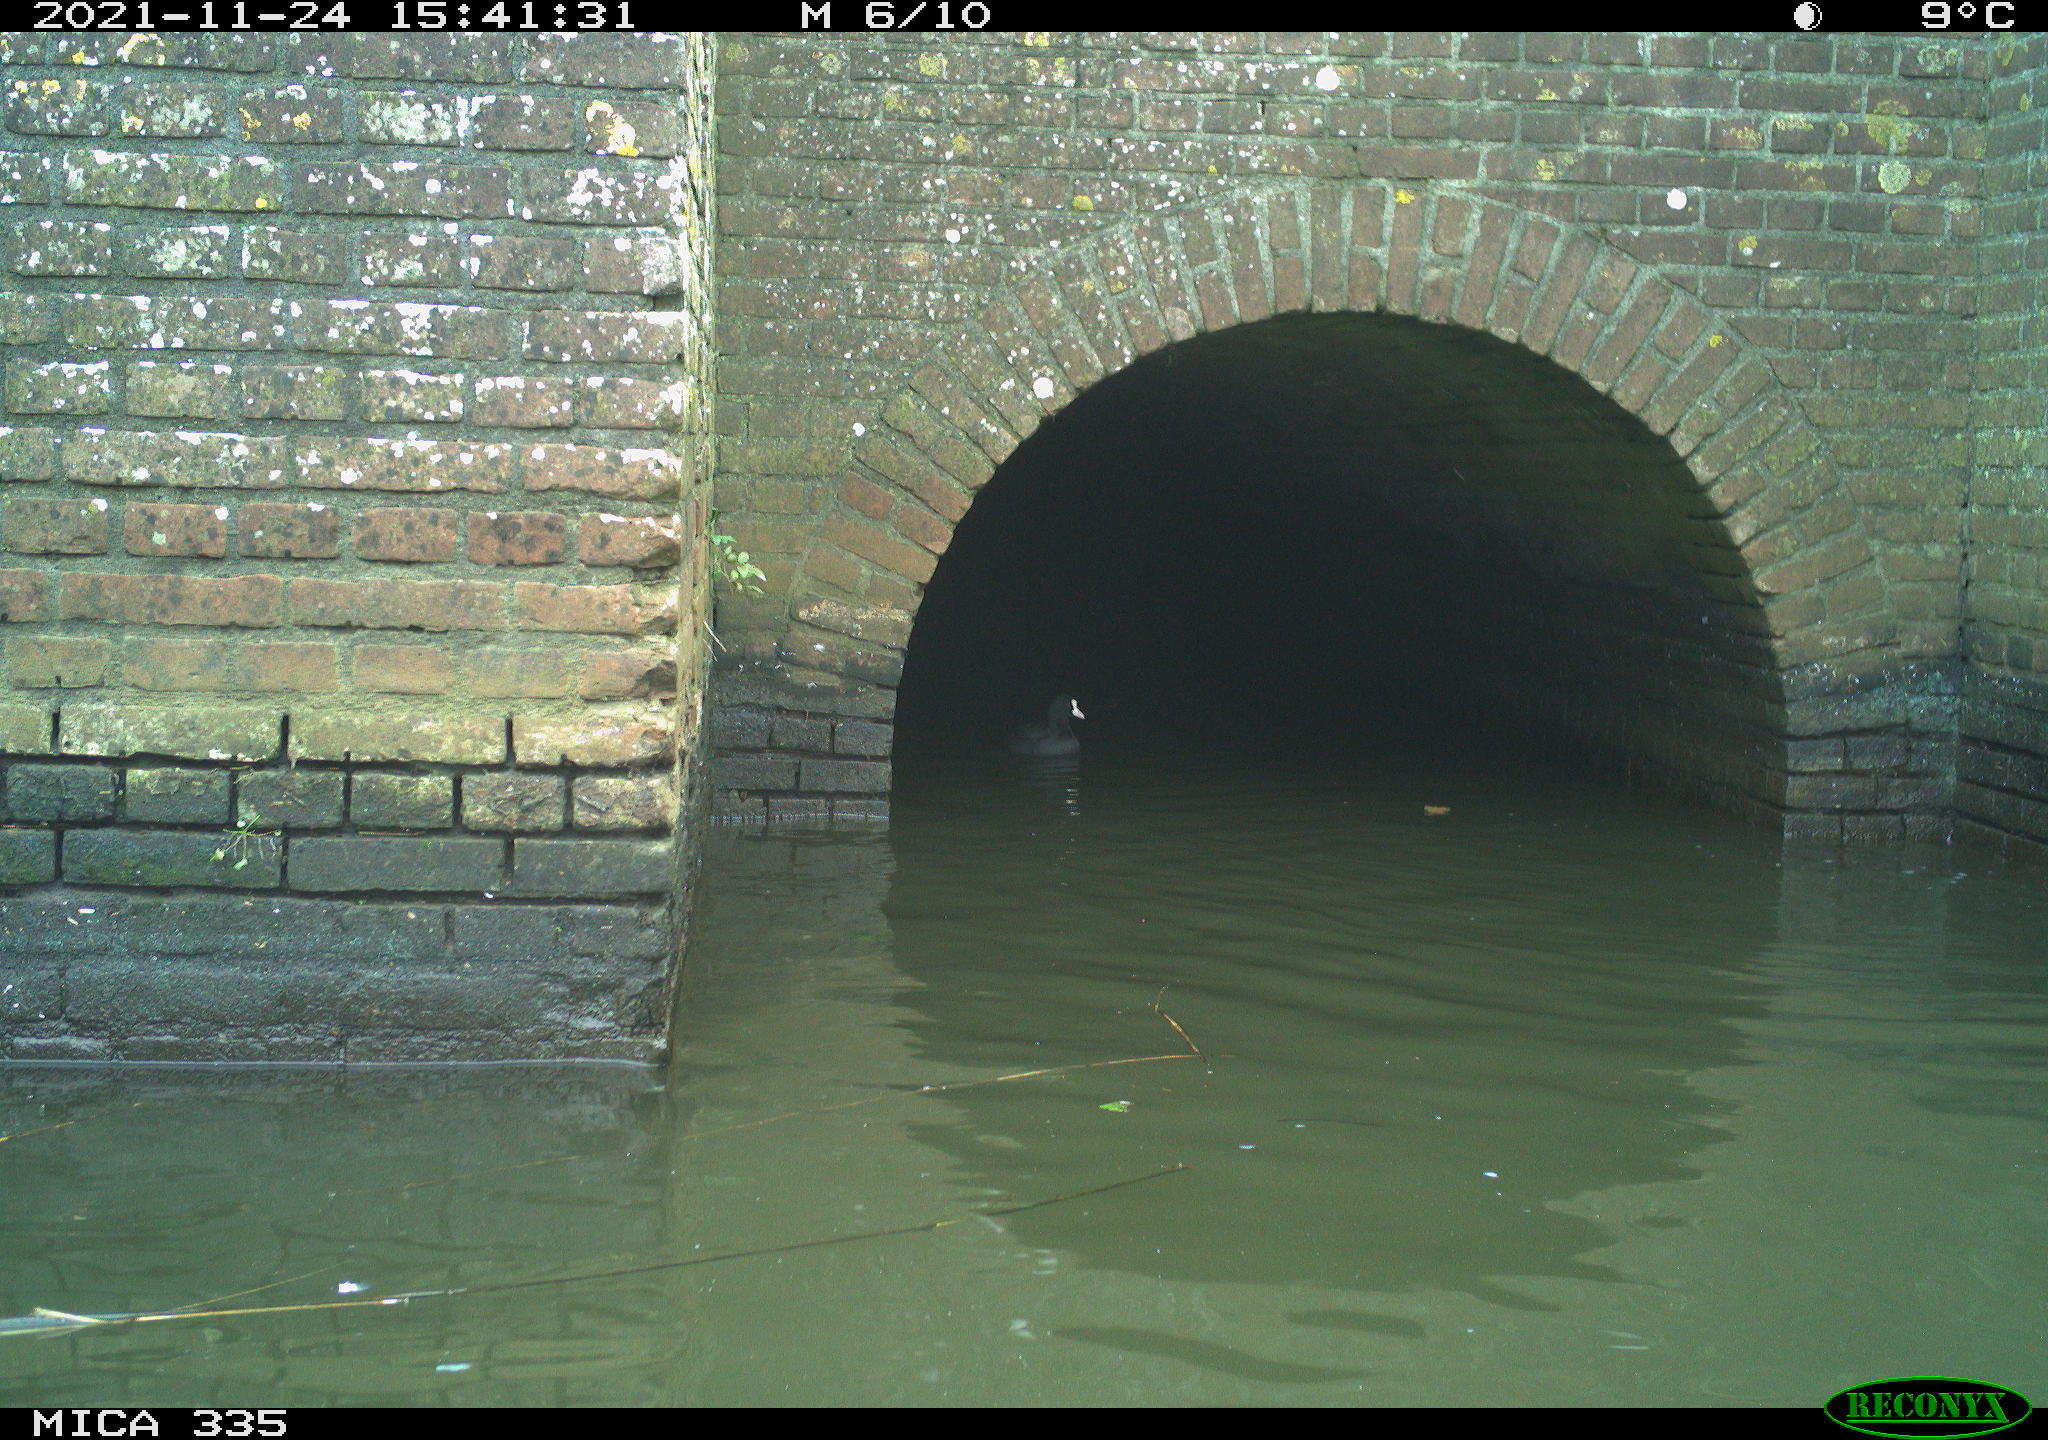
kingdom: Animalia
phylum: Chordata
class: Aves
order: Gruiformes
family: Rallidae
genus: Fulica
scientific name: Fulica atra
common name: Eurasian coot
